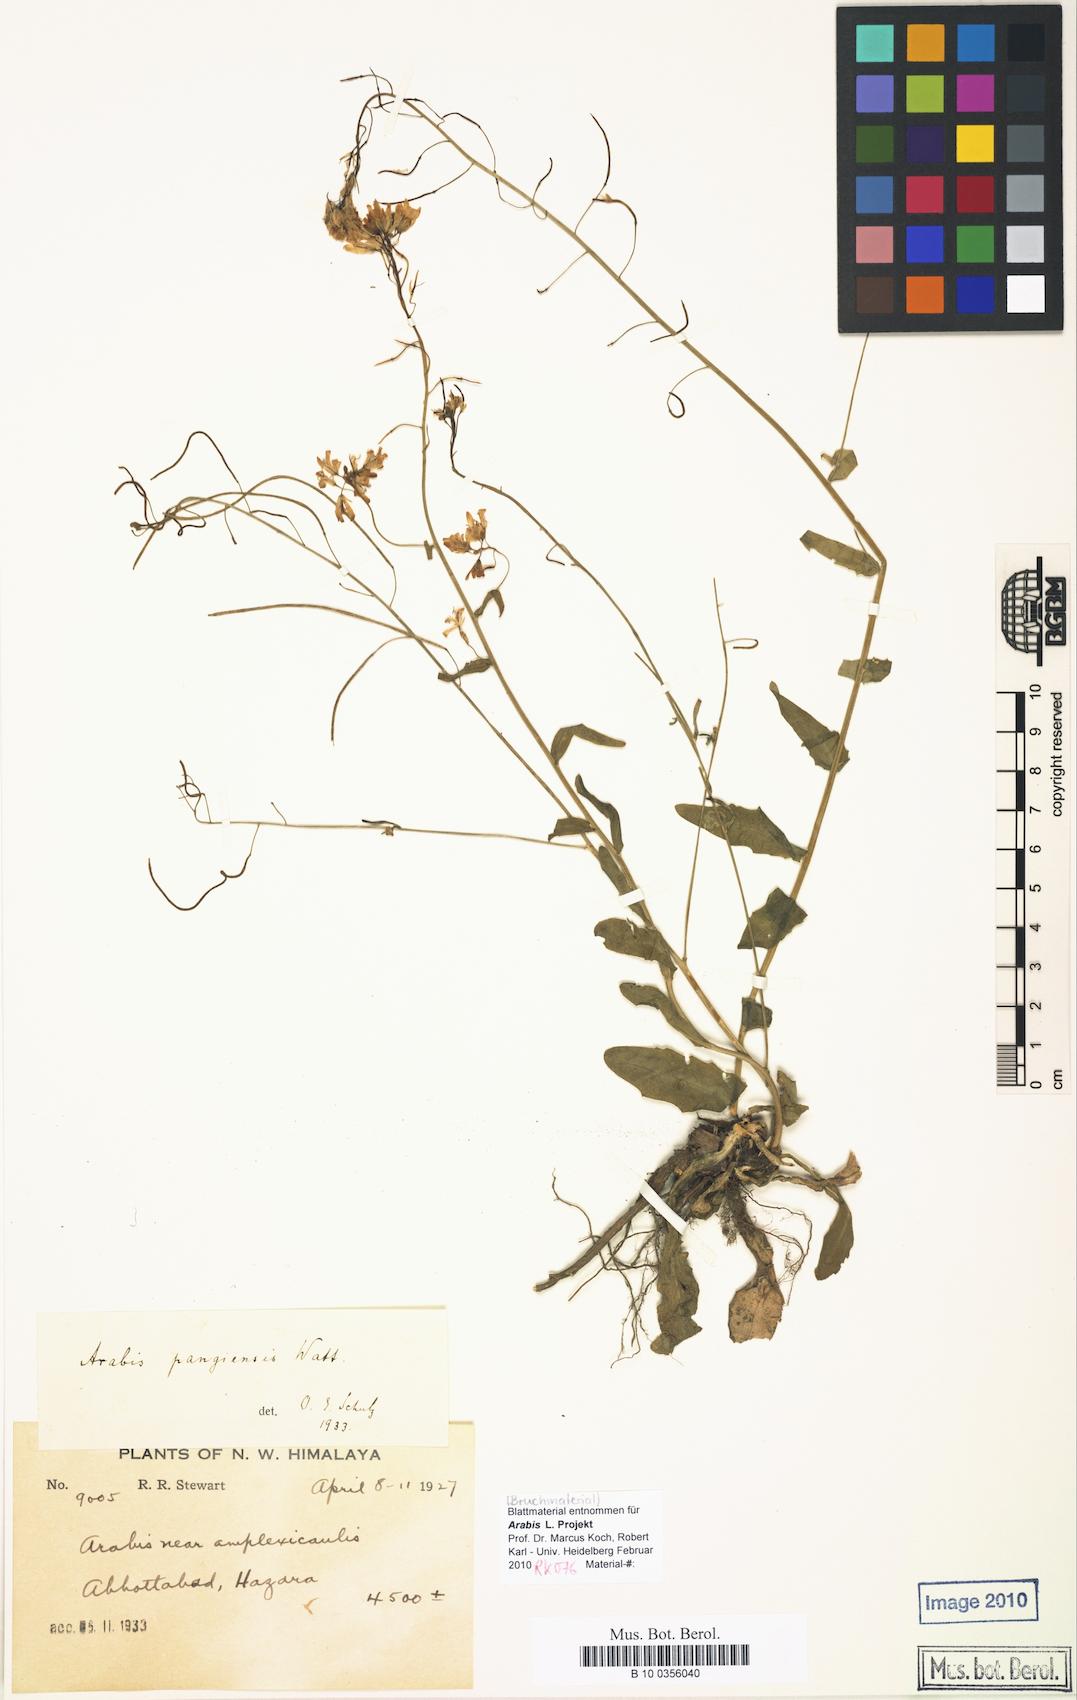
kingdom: Plantae
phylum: Tracheophyta
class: Magnoliopsida
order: Brassicales
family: Brassicaceae
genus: Arabis
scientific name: Arabis bijuga
